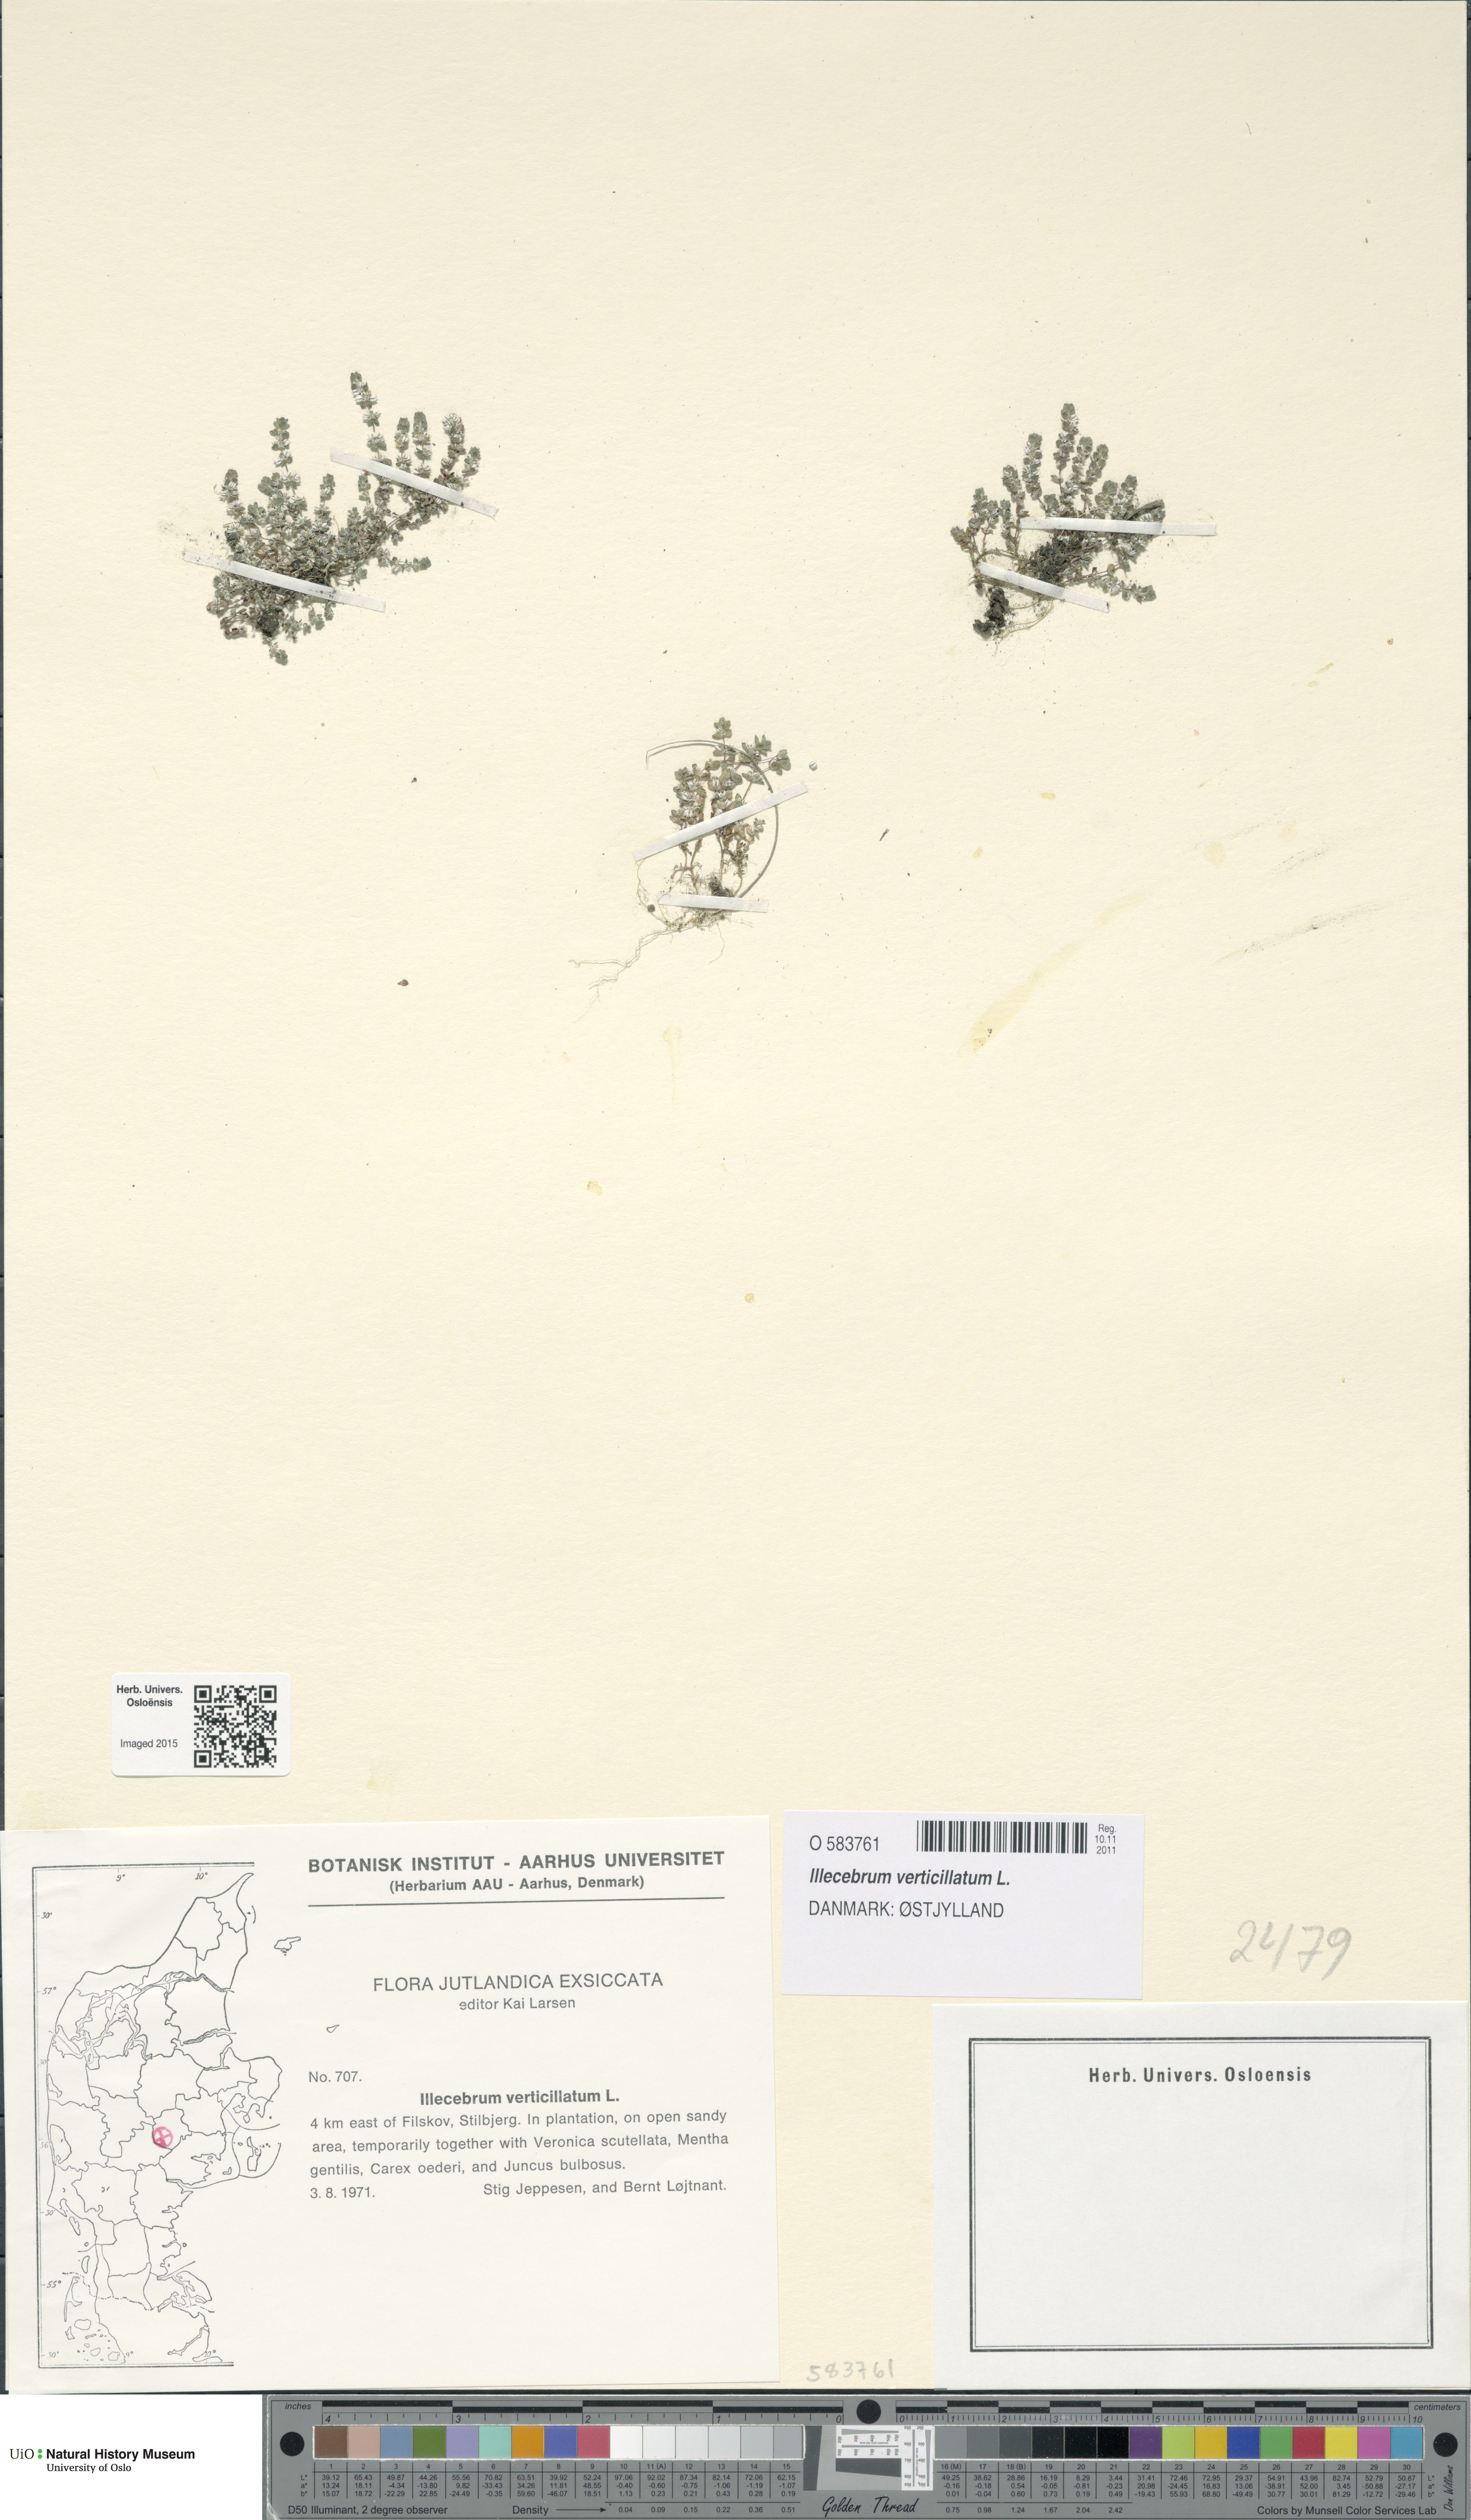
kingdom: Plantae
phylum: Tracheophyta
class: Magnoliopsida
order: Caryophyllales
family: Caryophyllaceae
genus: Illecebrum
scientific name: Illecebrum verticillatum
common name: Coral necklace
